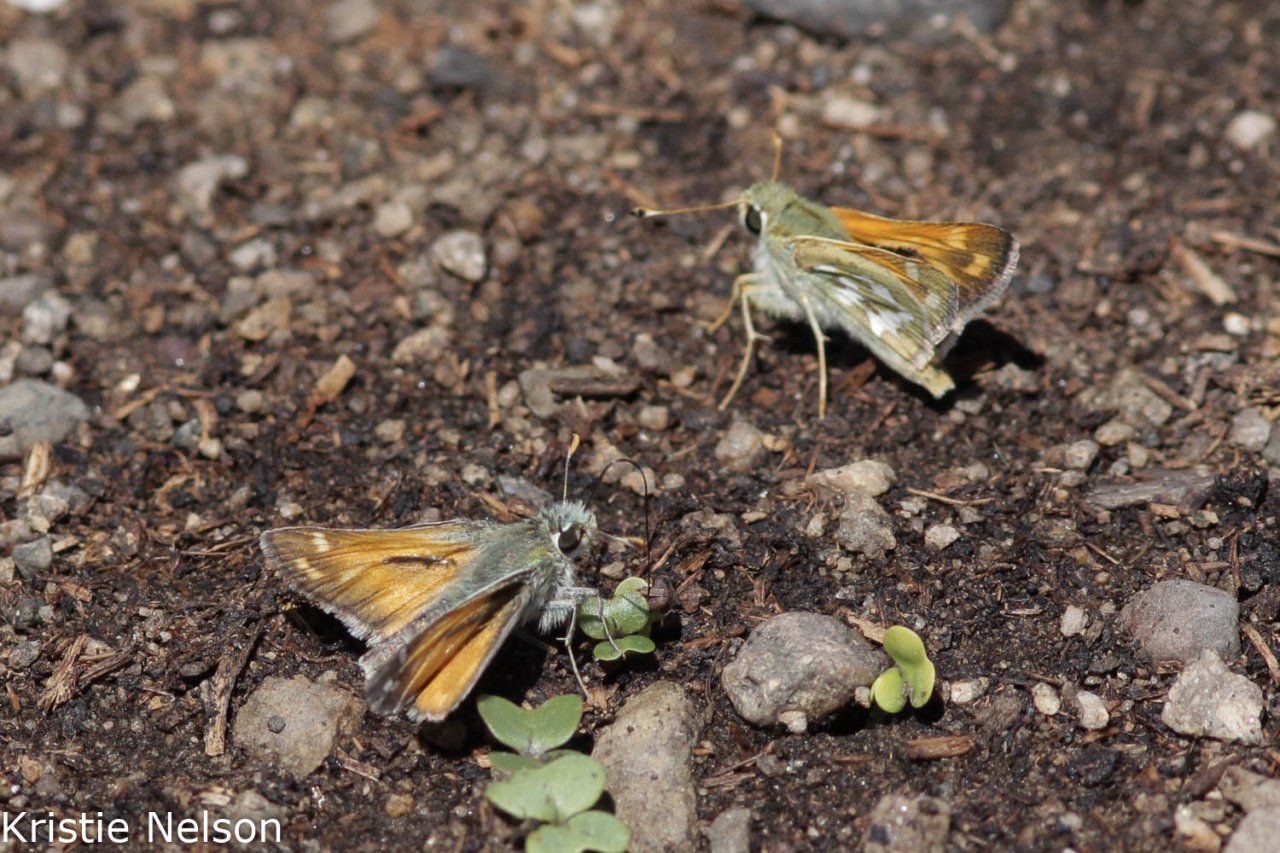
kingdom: Animalia
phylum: Arthropoda
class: Insecta
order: Lepidoptera
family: Hesperiidae
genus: Hesperia
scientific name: Hesperia comma
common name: Western Branded Skipper
